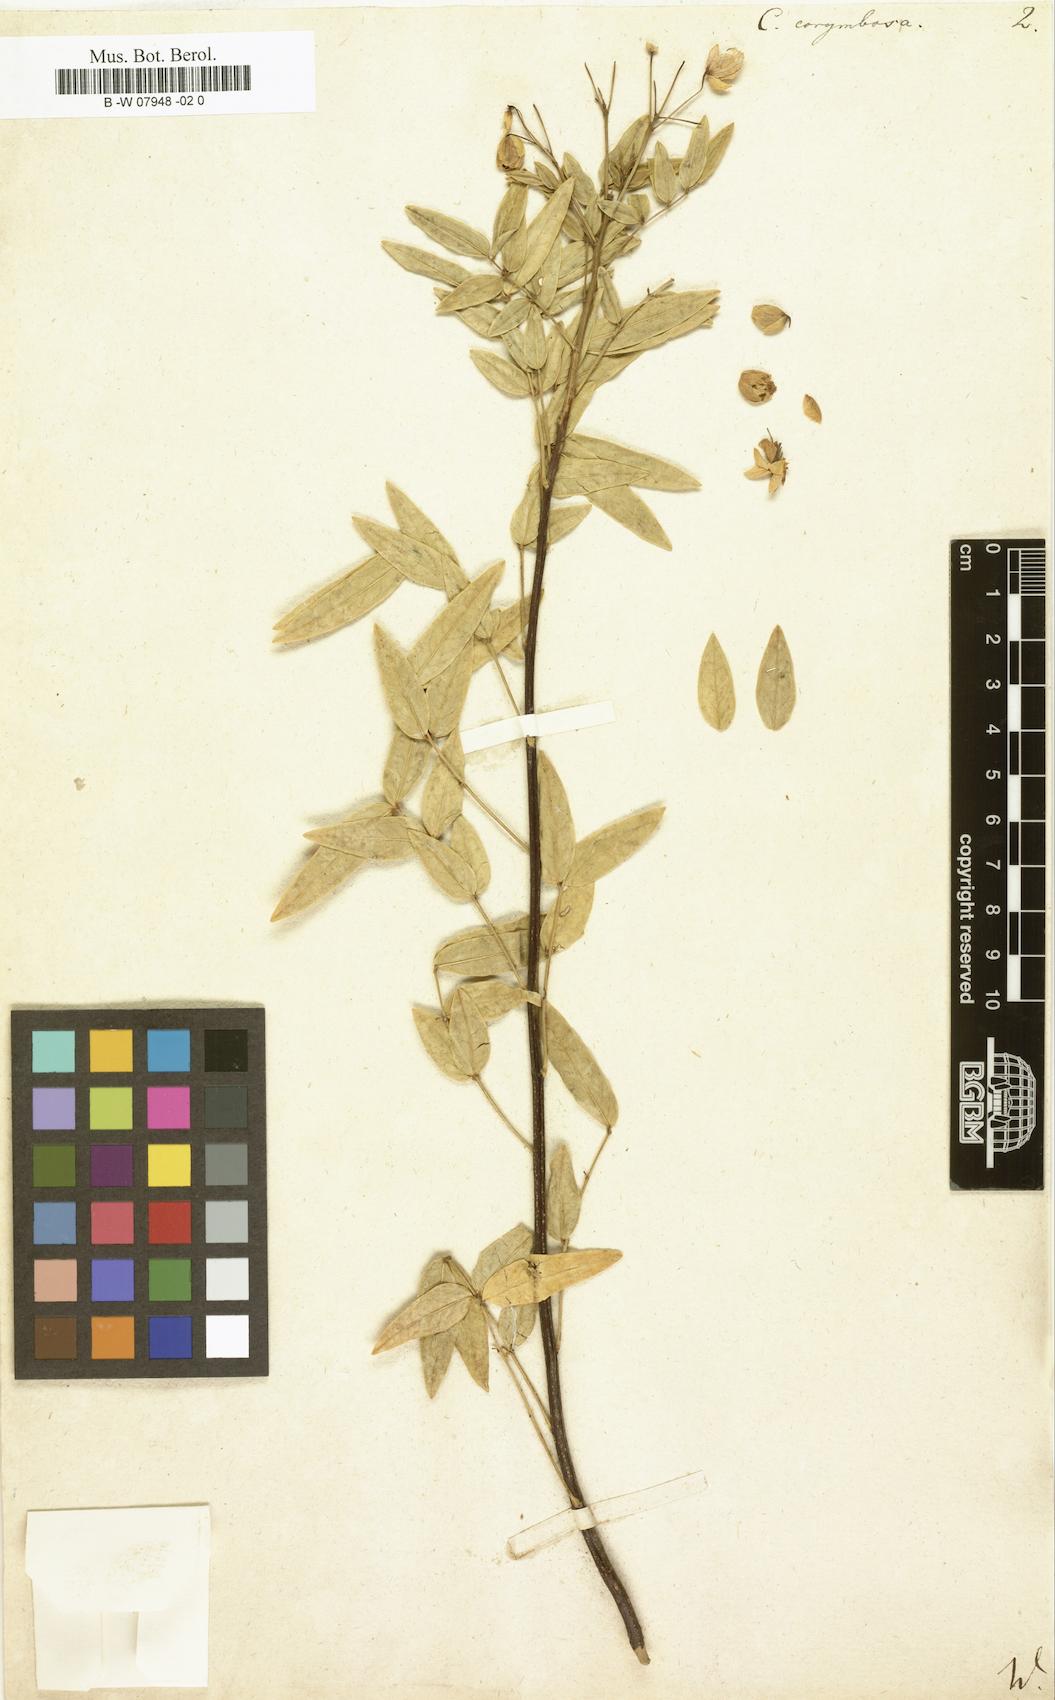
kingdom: Plantae
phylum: Tracheophyta
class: Magnoliopsida
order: Fabales
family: Fabaceae
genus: Senna
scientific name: Senna
